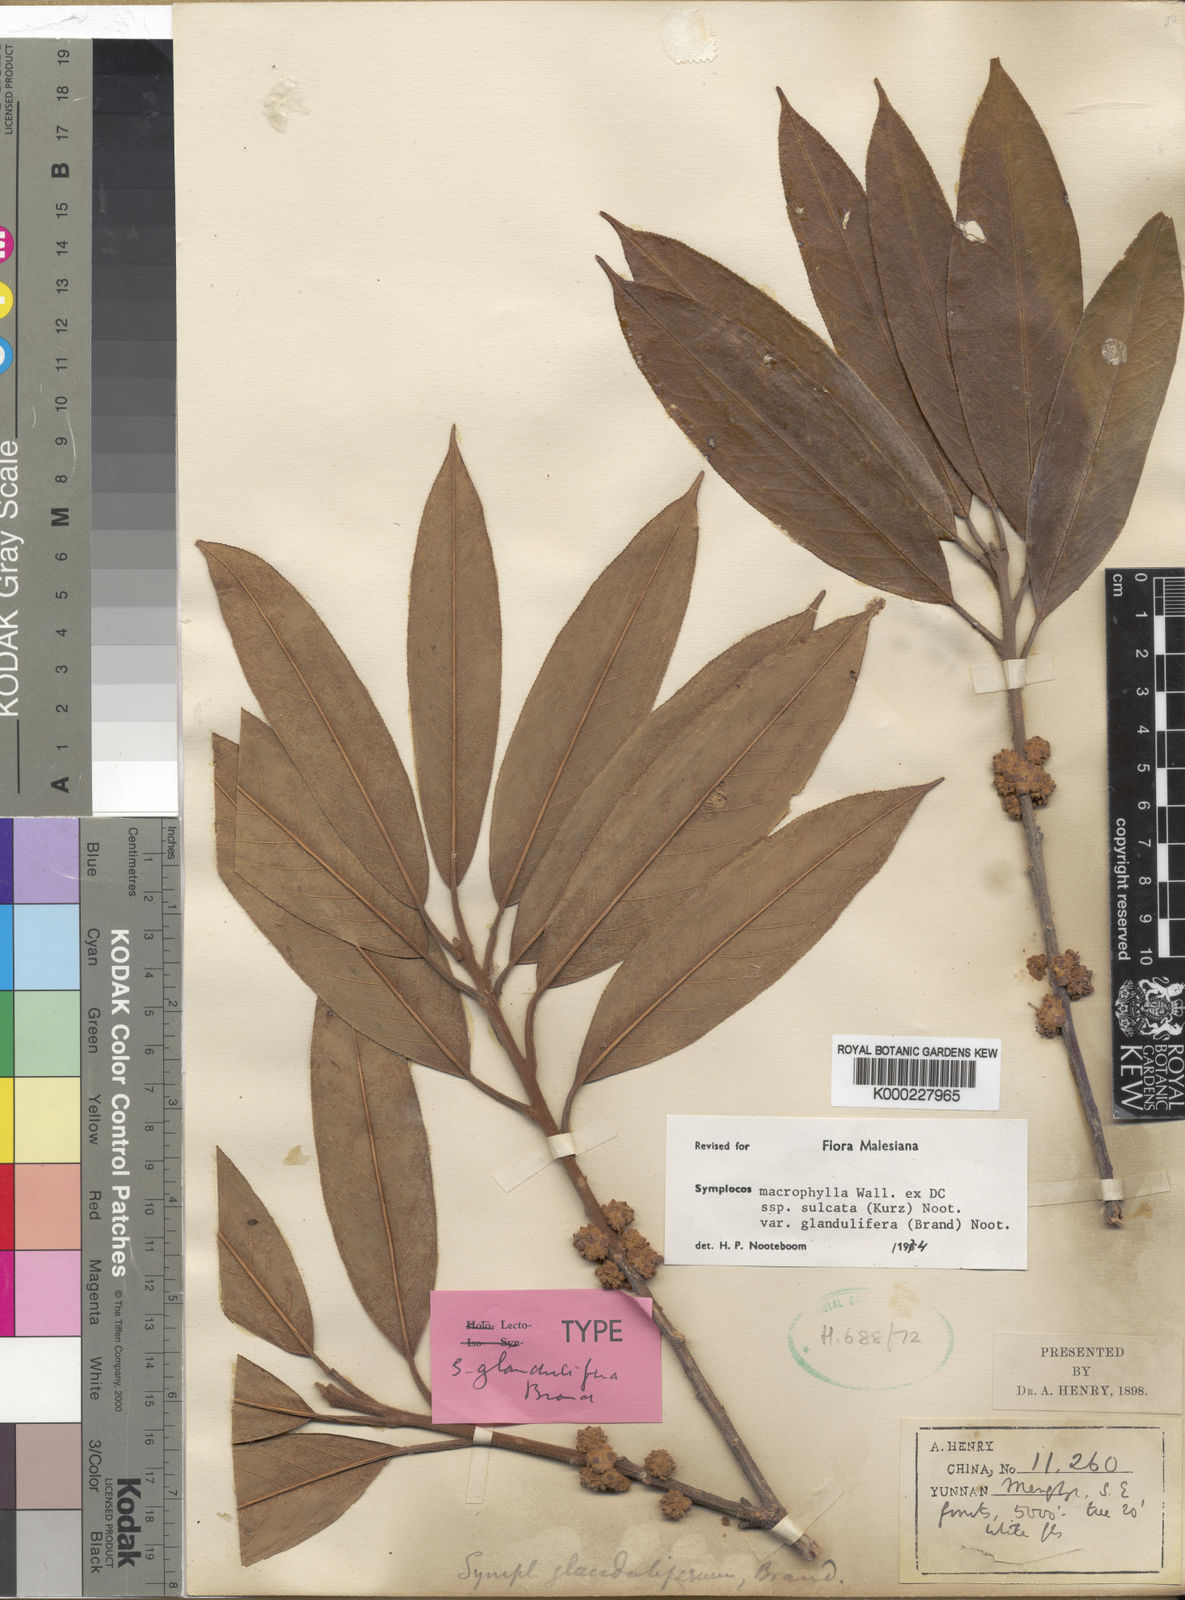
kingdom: Plantae
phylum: Tracheophyta
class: Magnoliopsida
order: Ericales
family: Symplocaceae
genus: Symplocos
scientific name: Symplocos glandulifera
